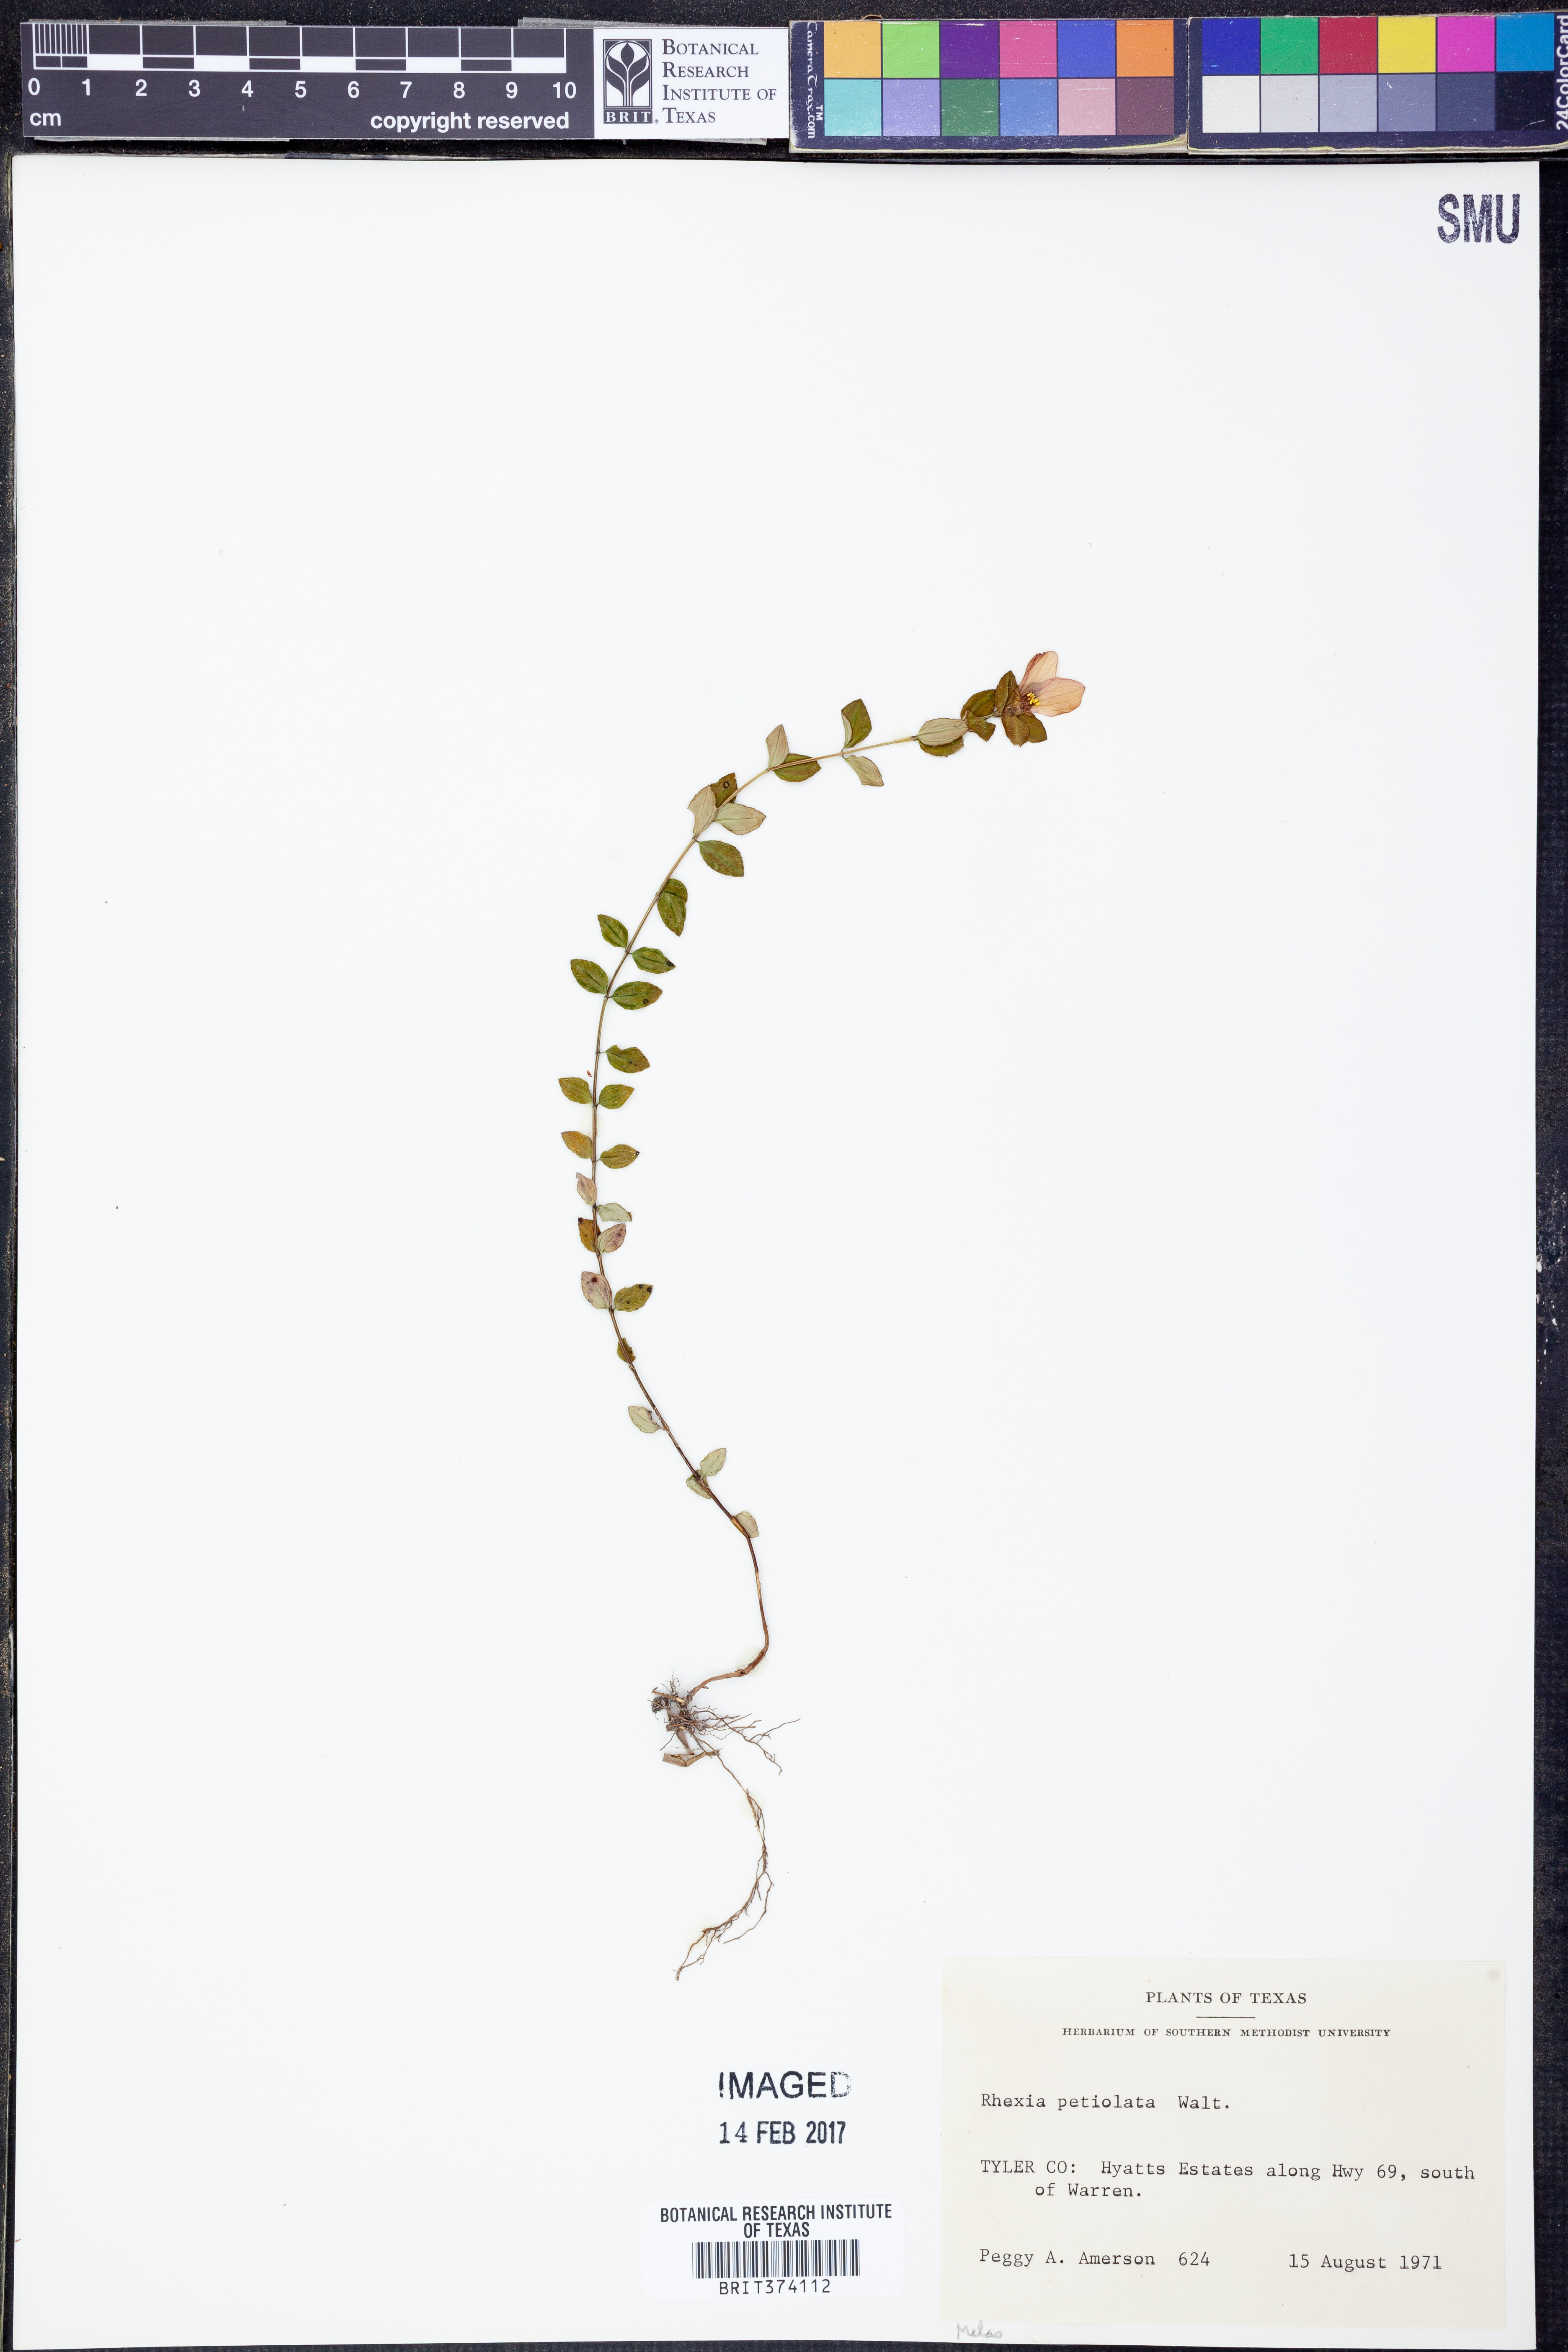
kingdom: Plantae
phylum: Tracheophyta
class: Magnoliopsida
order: Myrtales
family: Melastomataceae
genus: Rhexia
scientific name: Rhexia petiolata
